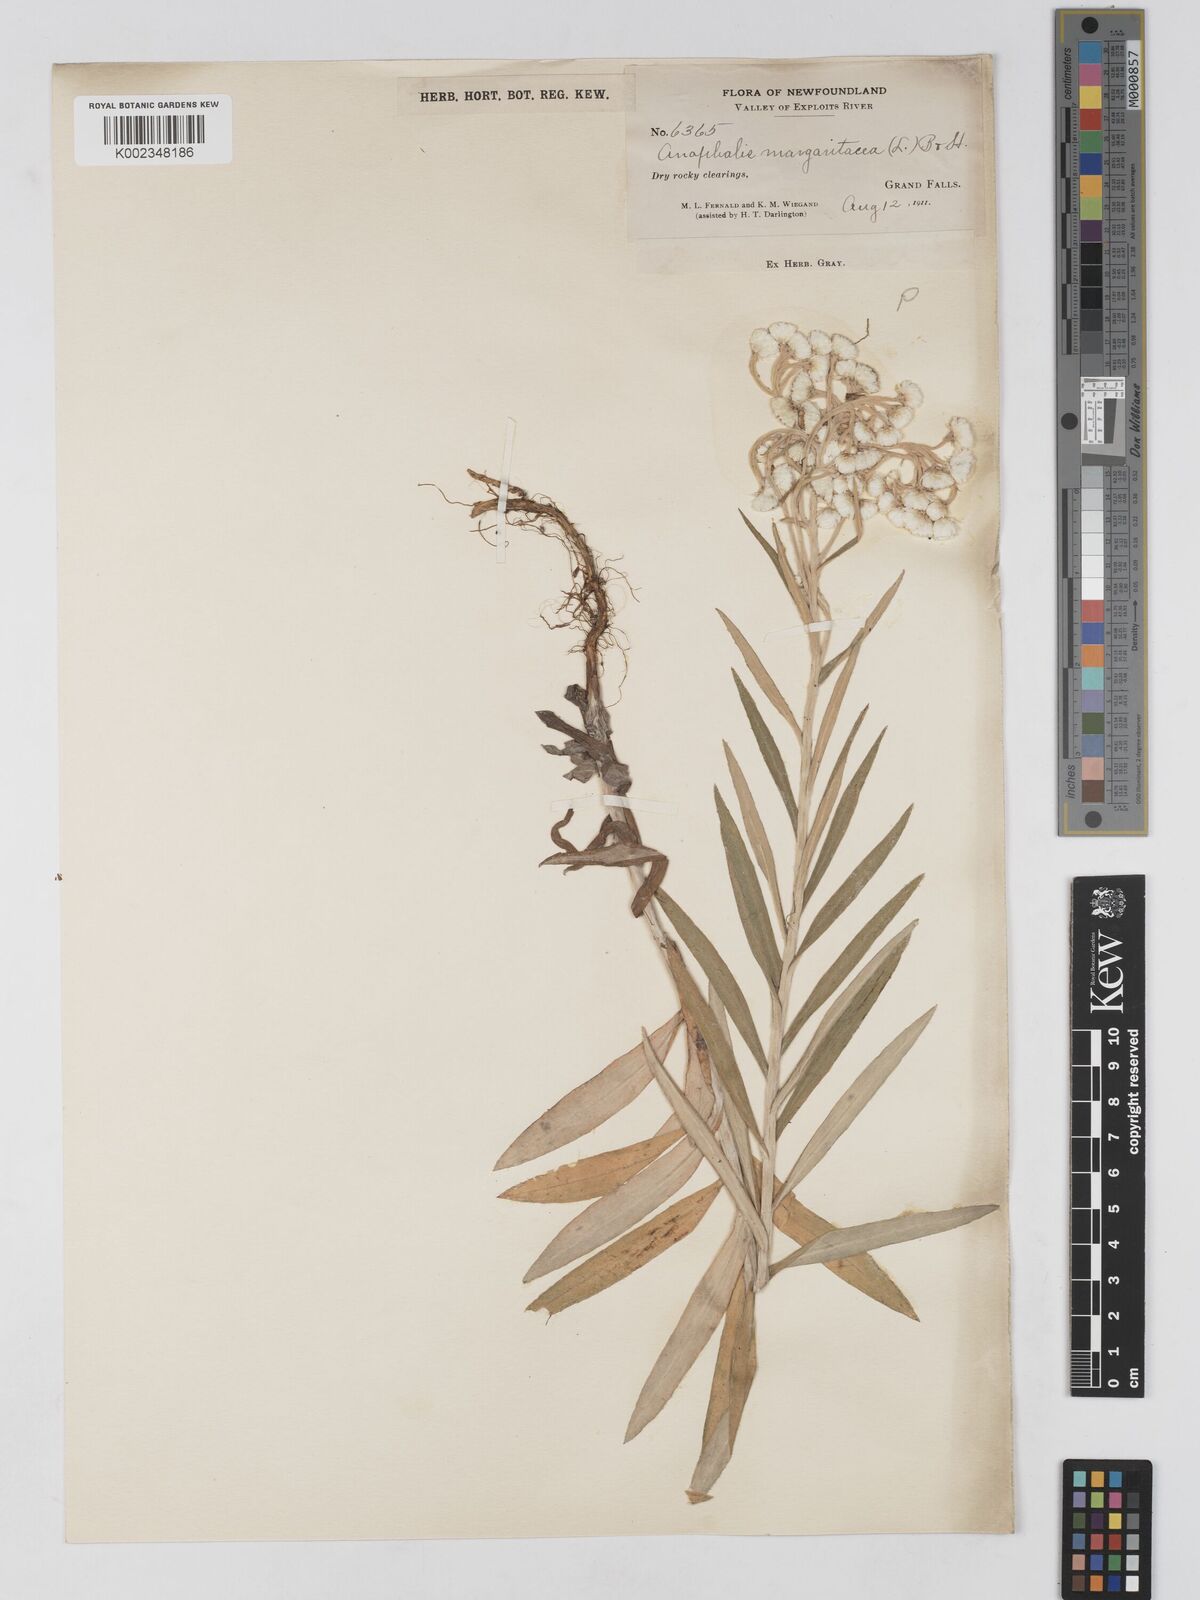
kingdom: Plantae
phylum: Tracheophyta
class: Magnoliopsida
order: Asterales
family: Asteraceae
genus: Anaphalis
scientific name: Anaphalis margaritacea
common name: Pearly everlasting
